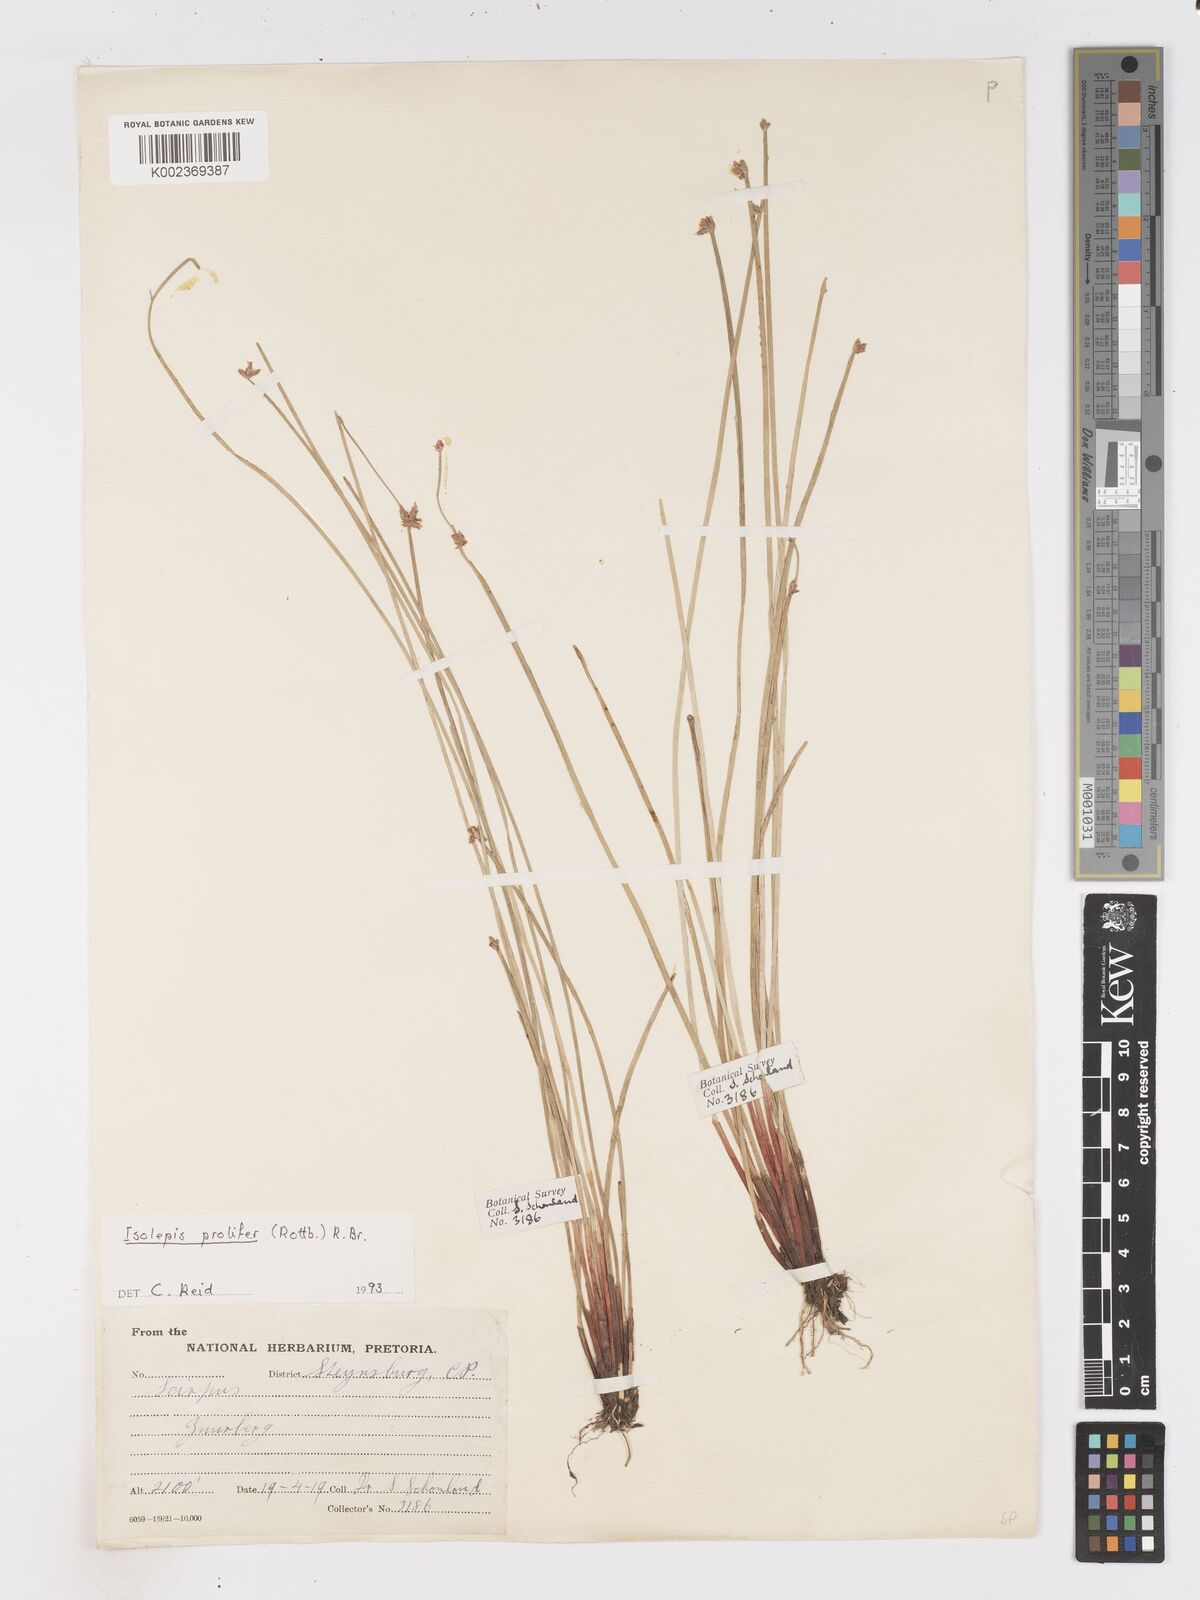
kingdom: Plantae
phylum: Tracheophyta
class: Liliopsida
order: Poales
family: Cyperaceae
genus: Isolepis
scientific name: Isolepis prolifera
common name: Proliferating bulrush
